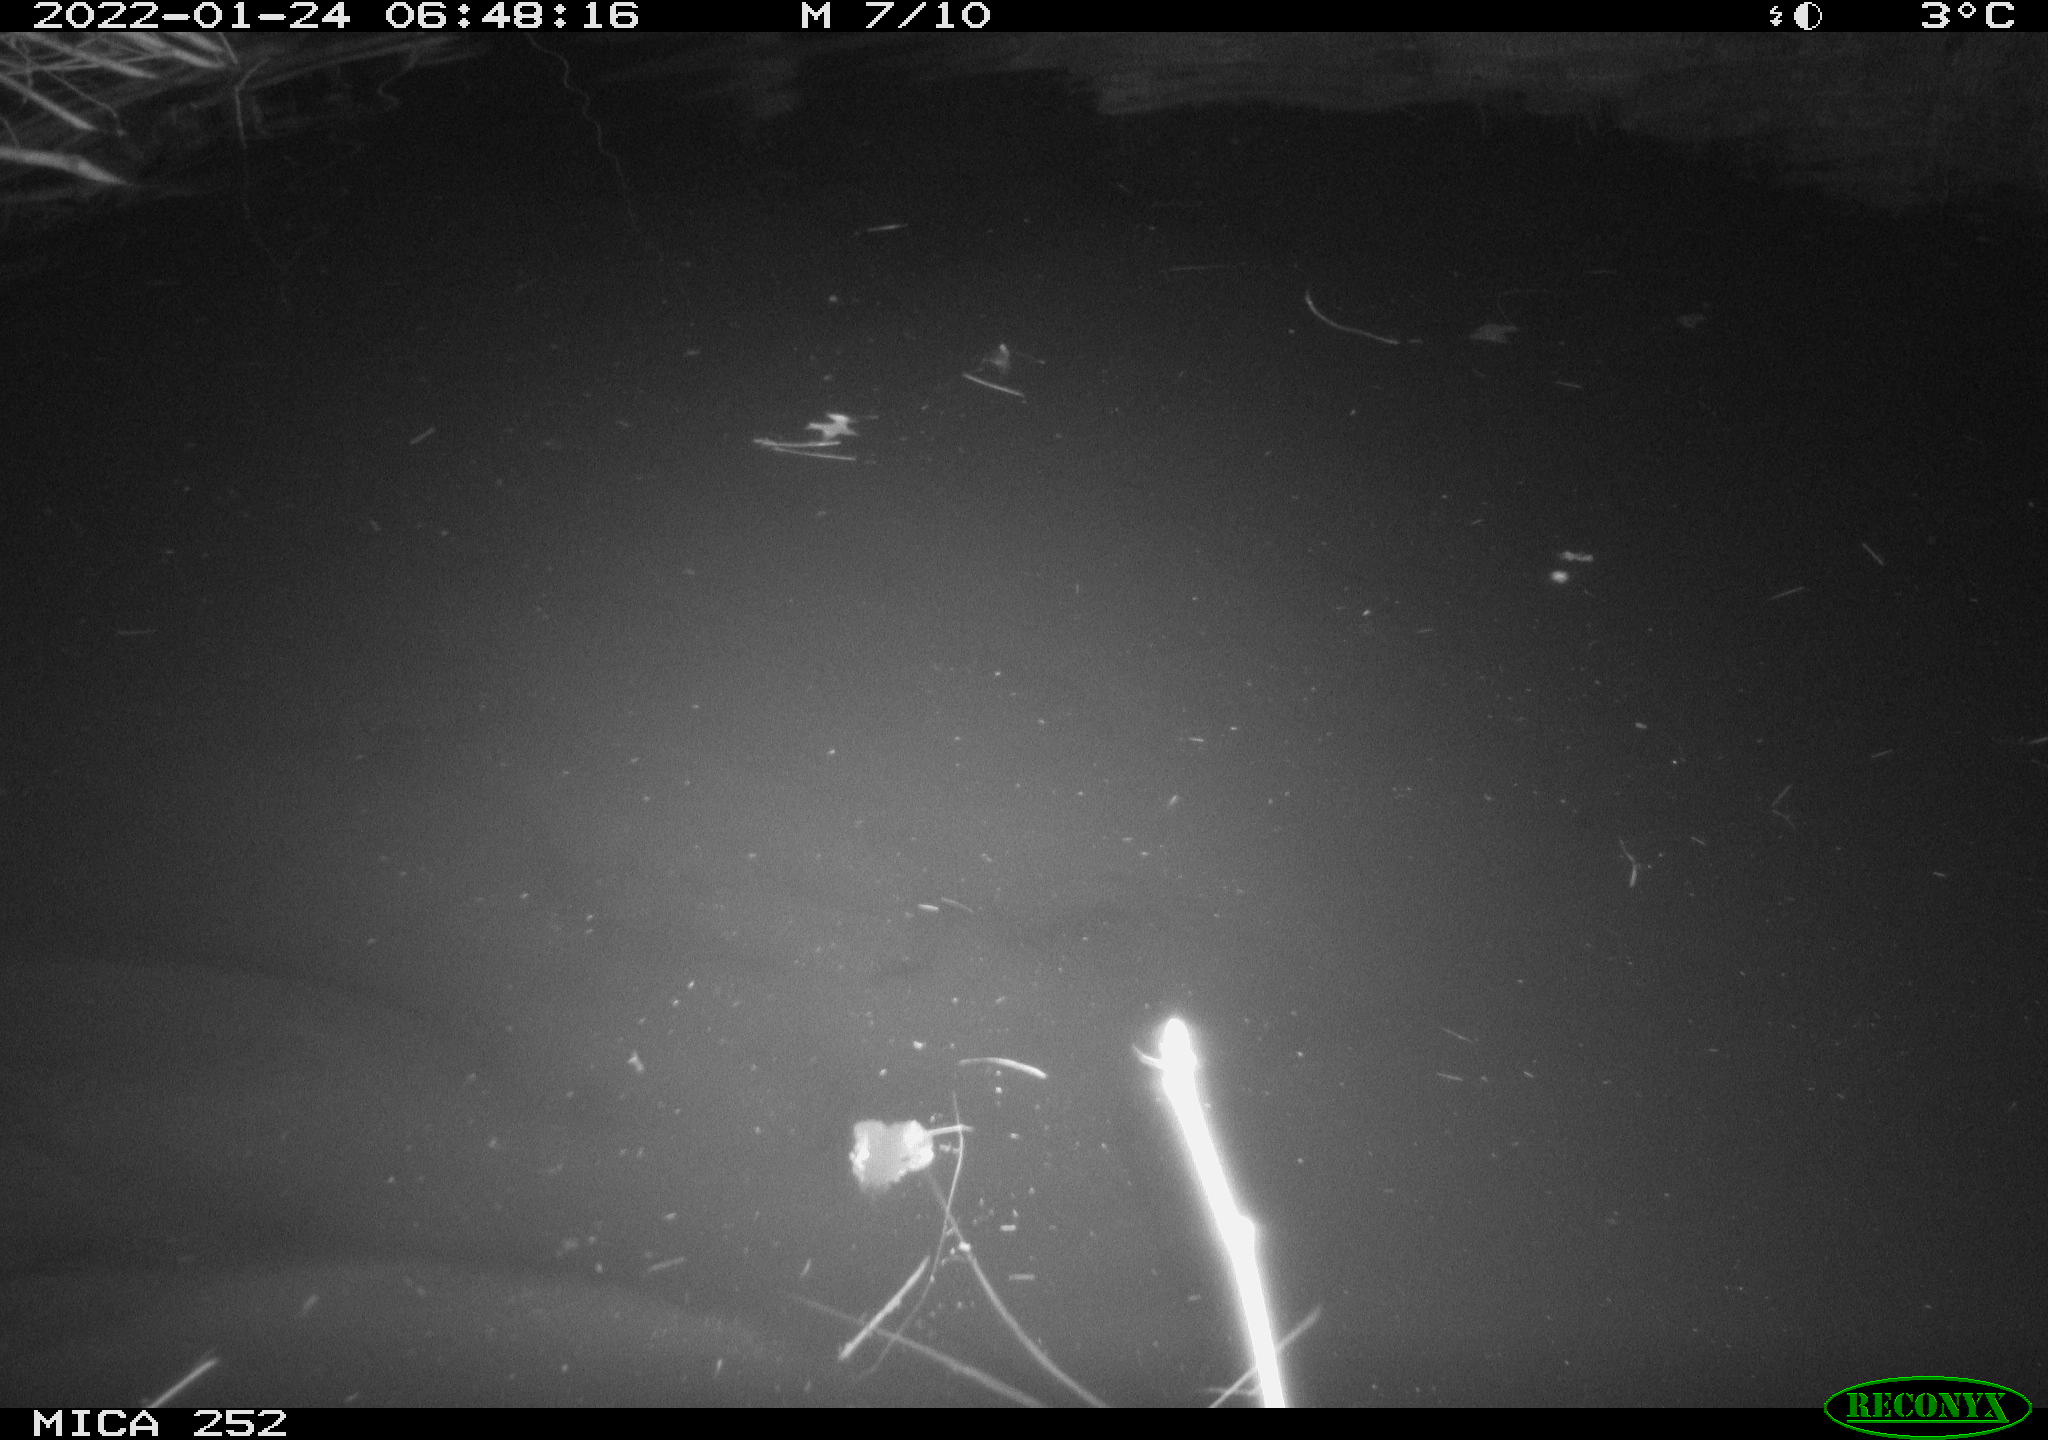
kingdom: Animalia
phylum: Chordata
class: Mammalia
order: Rodentia
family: Castoridae
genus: Castor
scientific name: Castor fiber
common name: Eurasian beaver
